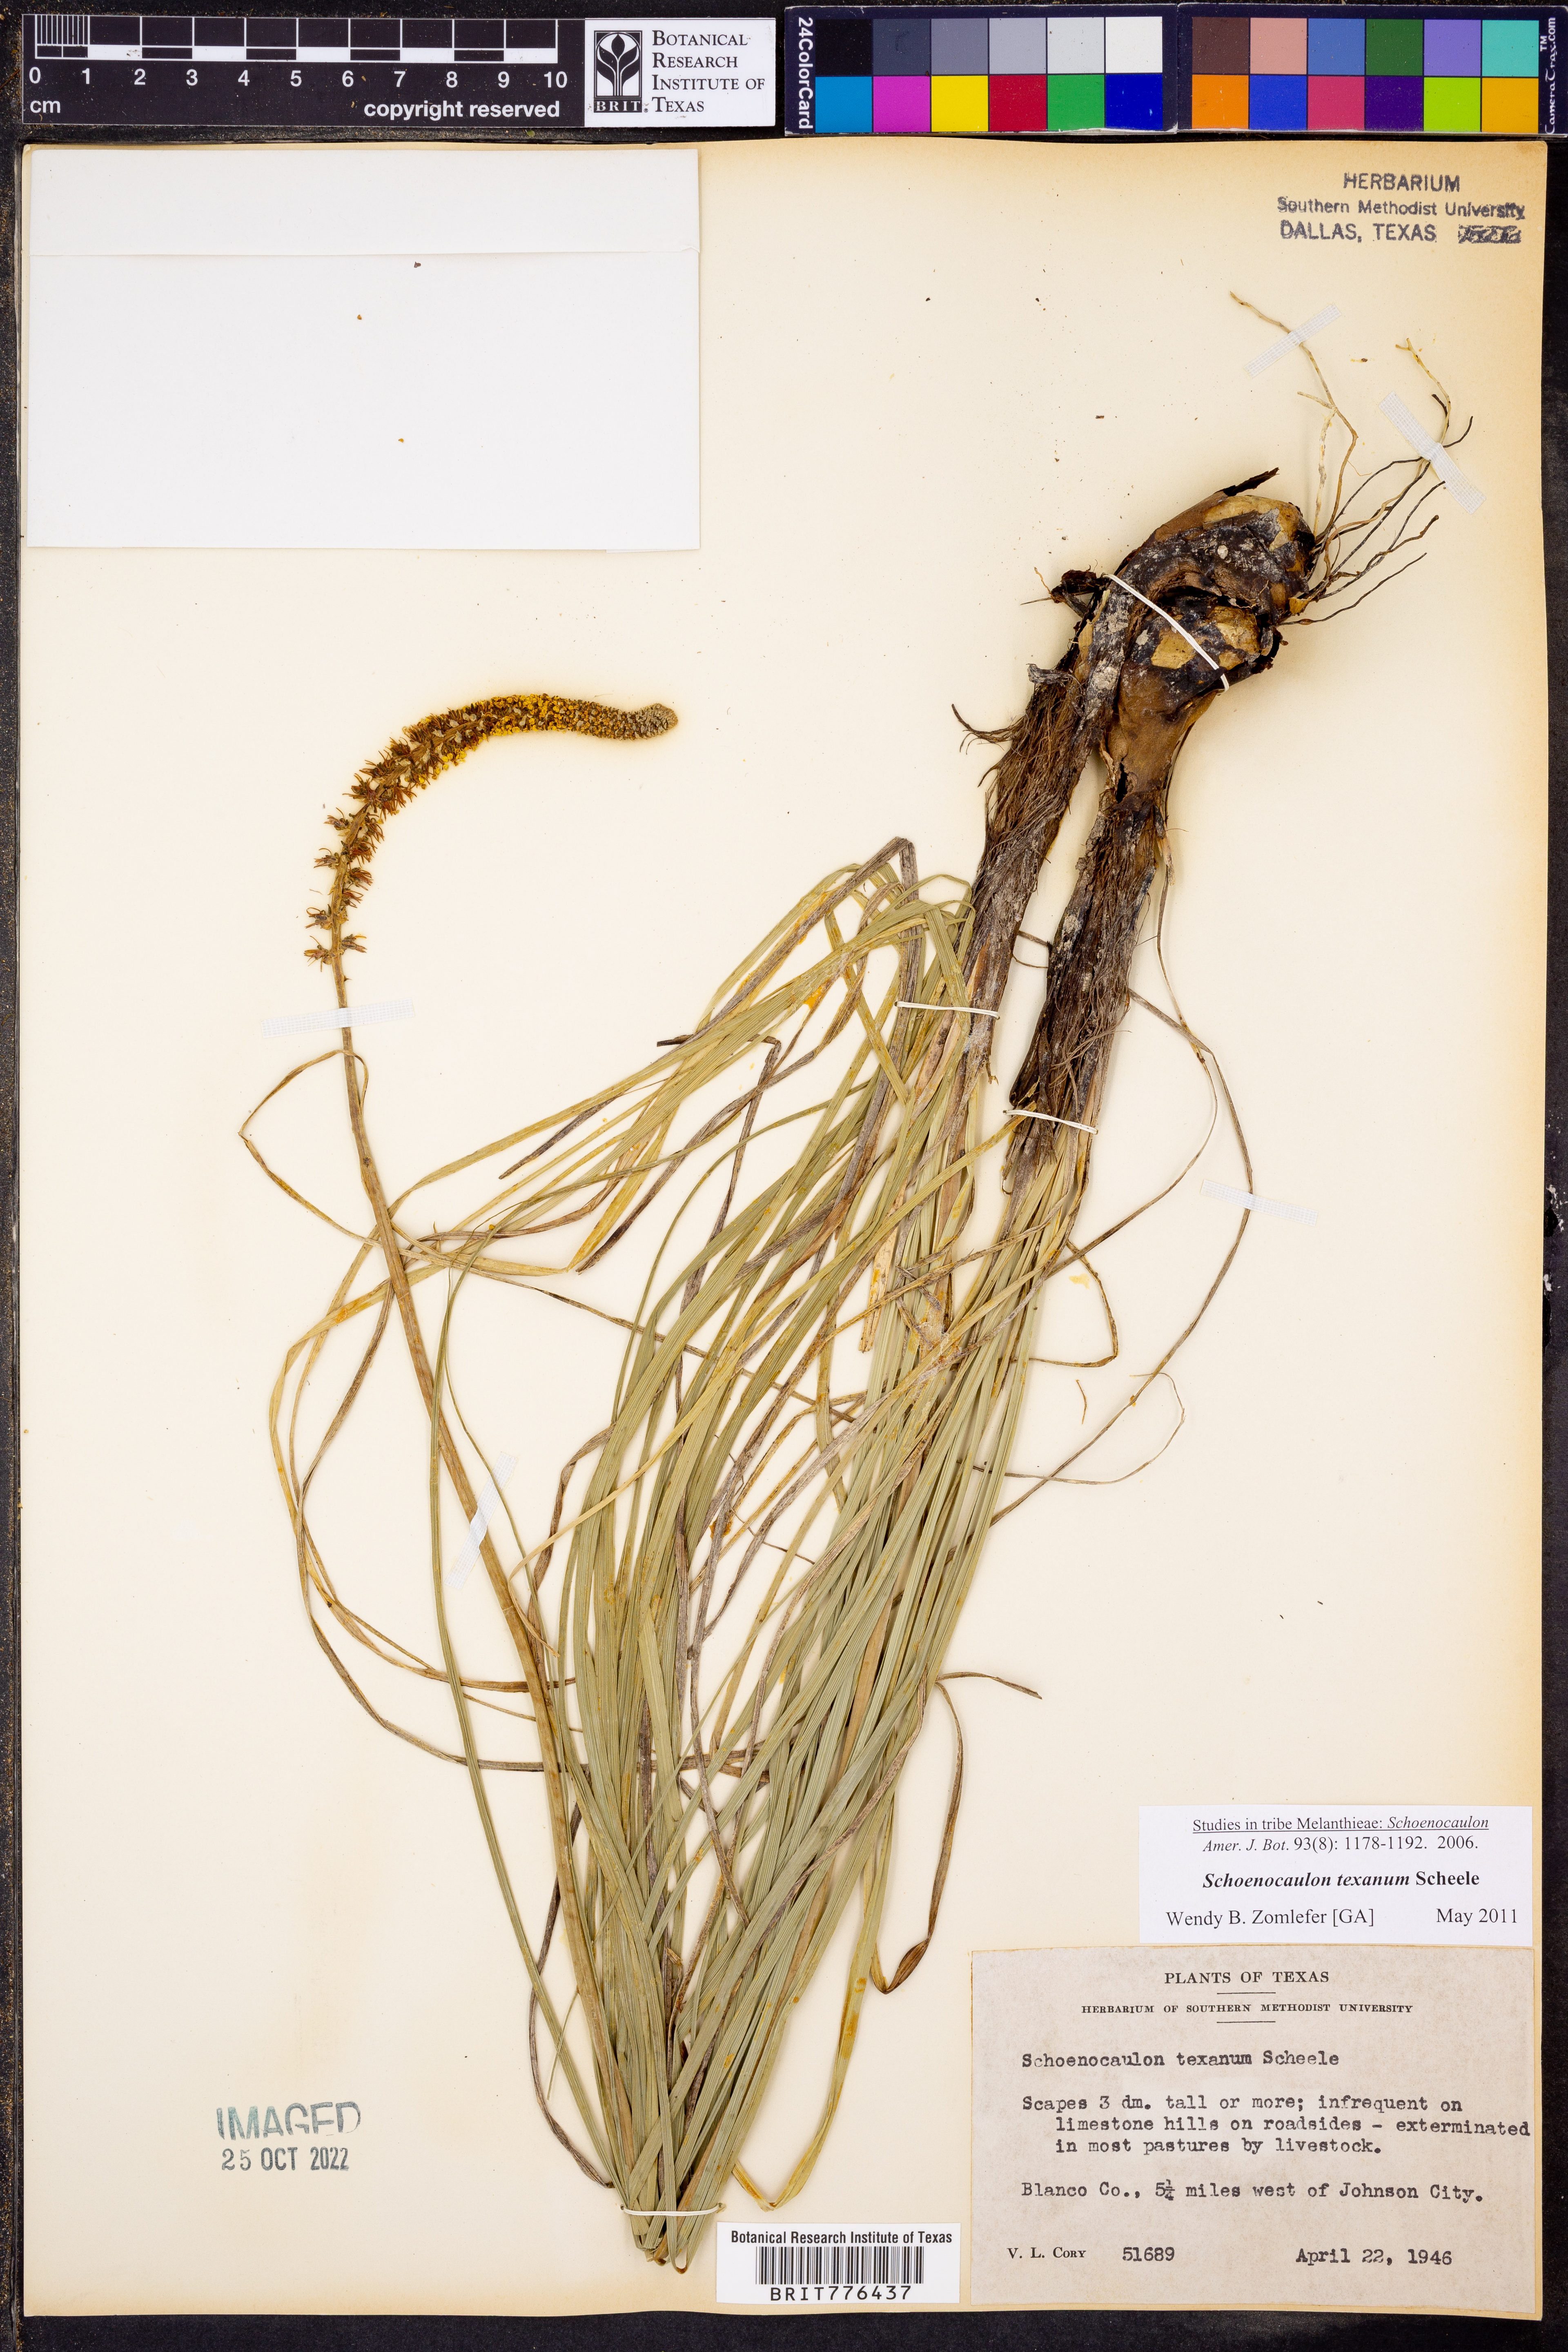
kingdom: Plantae
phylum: Tracheophyta
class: Liliopsida
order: Liliales
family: Melanthiaceae
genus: Schoenocaulon
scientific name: Schoenocaulon texanum
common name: Texas feather-shank
